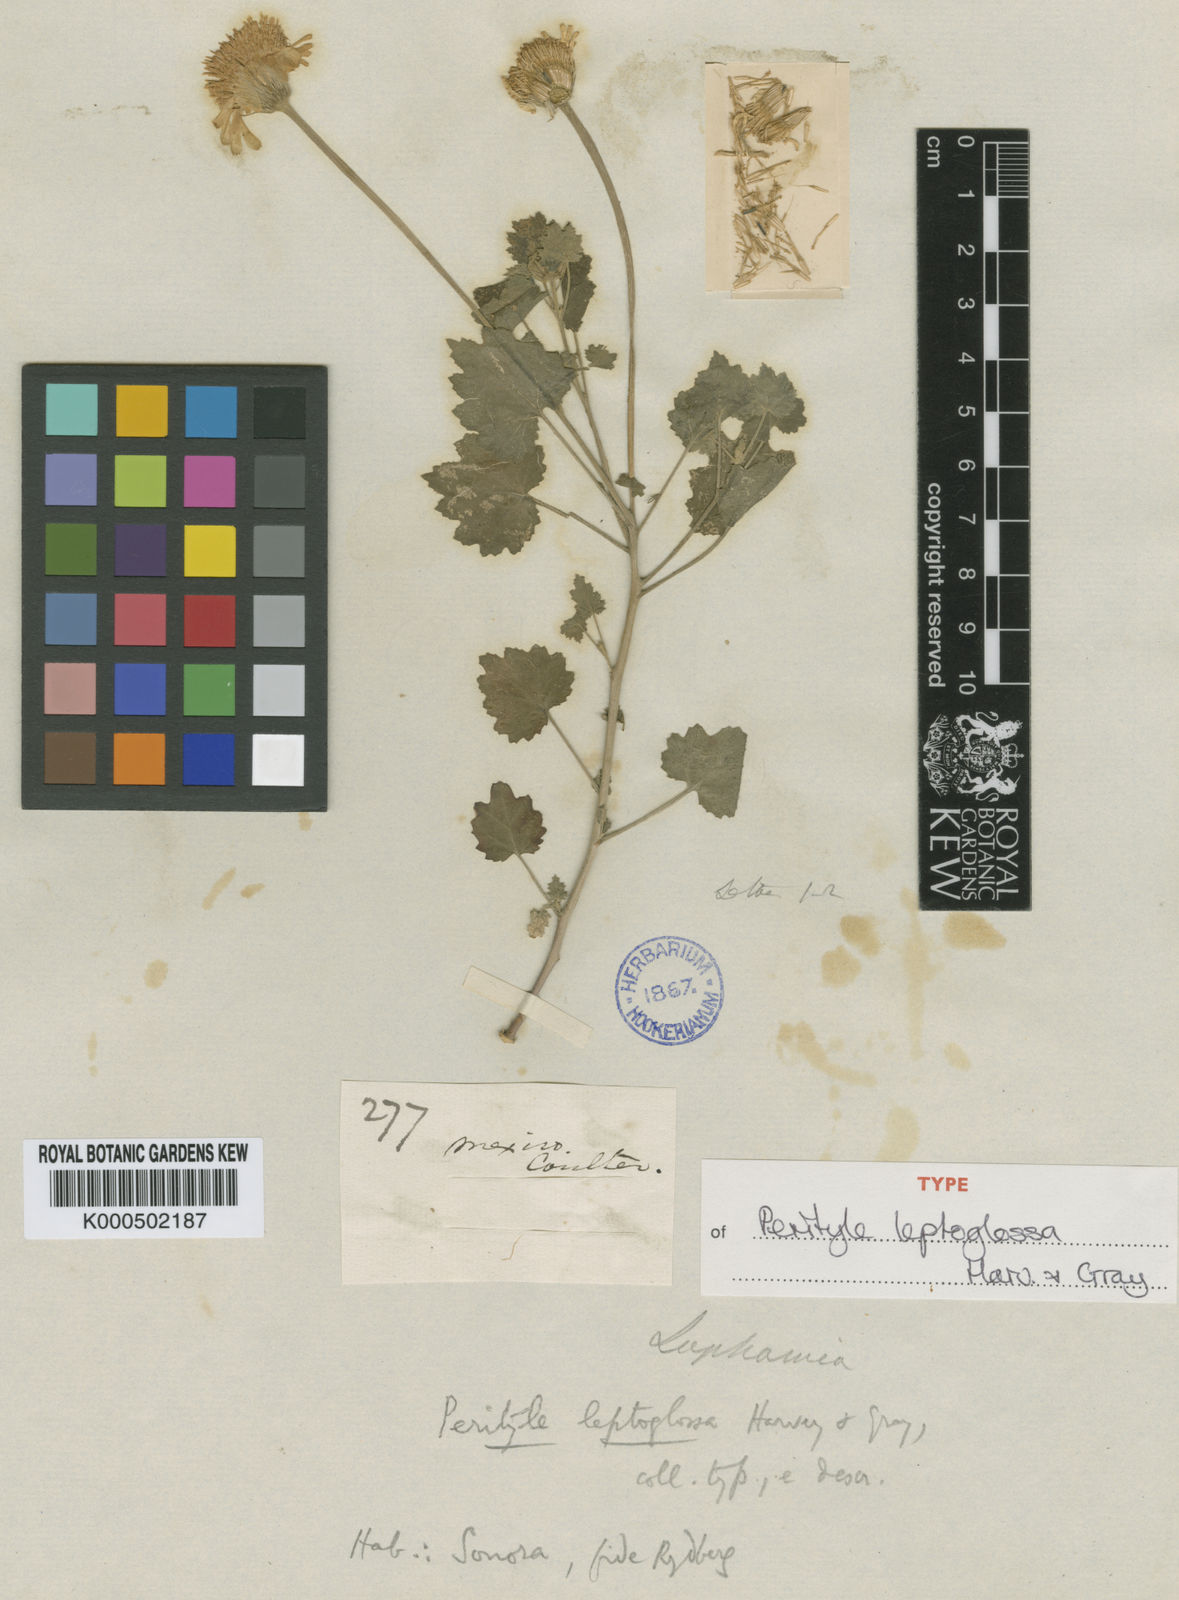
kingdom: Plantae
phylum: Tracheophyta
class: Magnoliopsida
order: Asterales
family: Asteraceae
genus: Laphamia
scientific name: Laphamia leptoglossa
